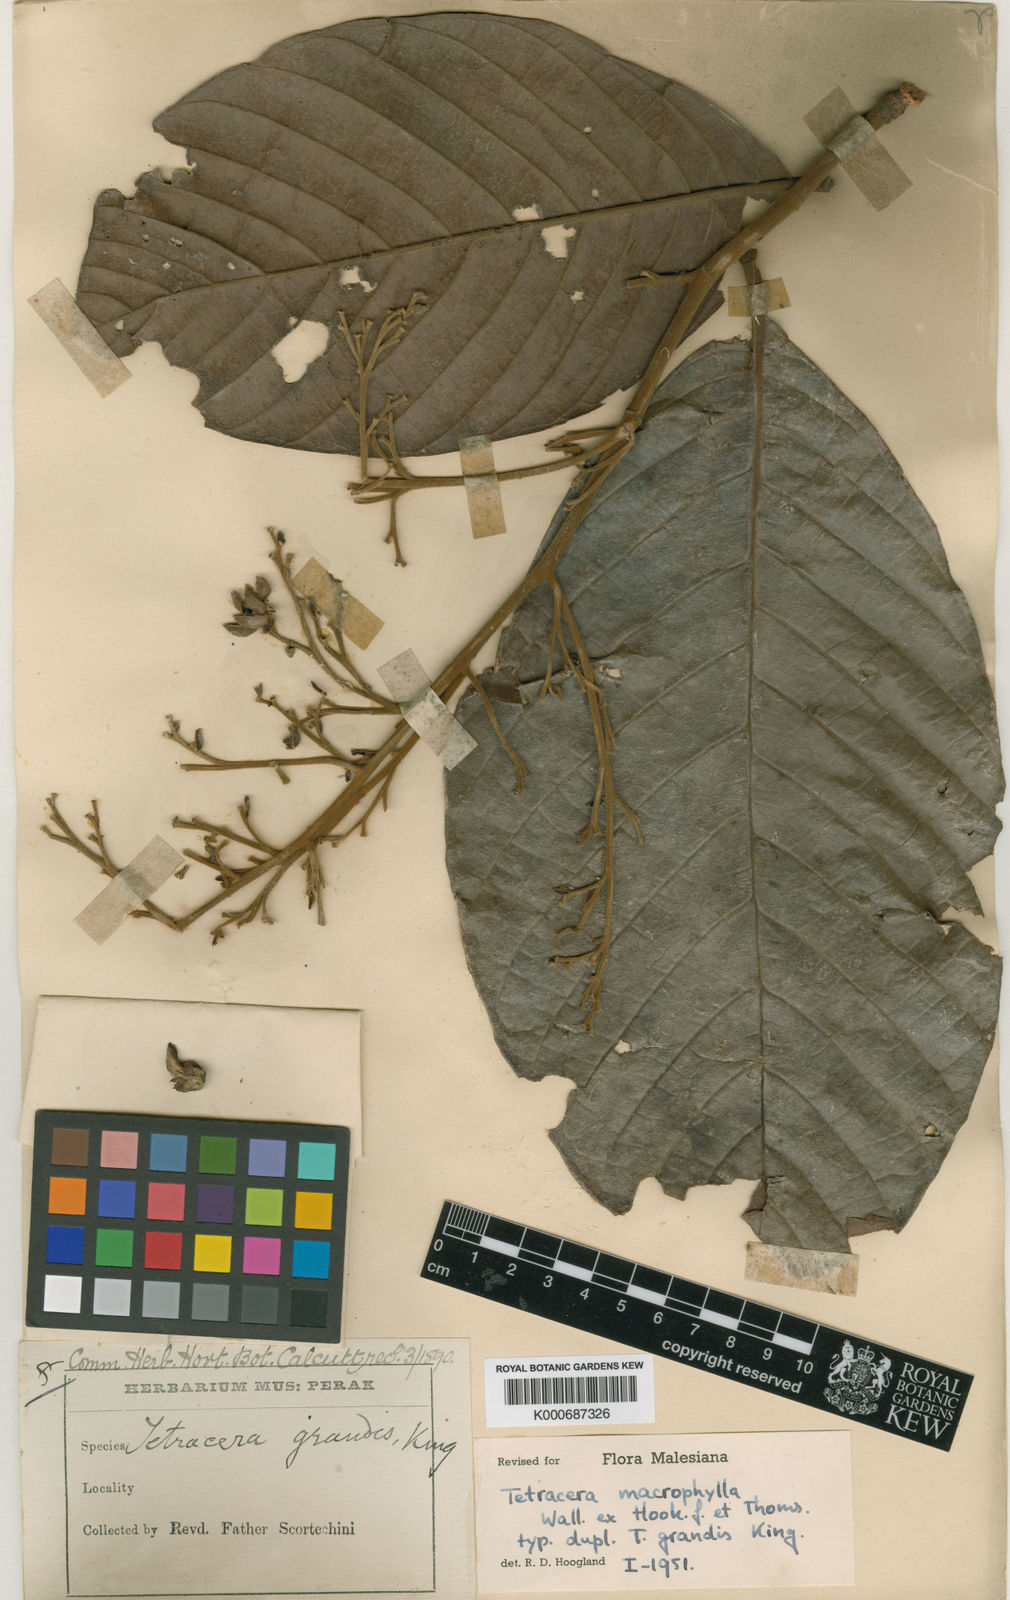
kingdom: Plantae
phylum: Tracheophyta
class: Magnoliopsida
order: Dilleniales
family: Dilleniaceae
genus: Tetracera
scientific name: Tetracera macrophylla
